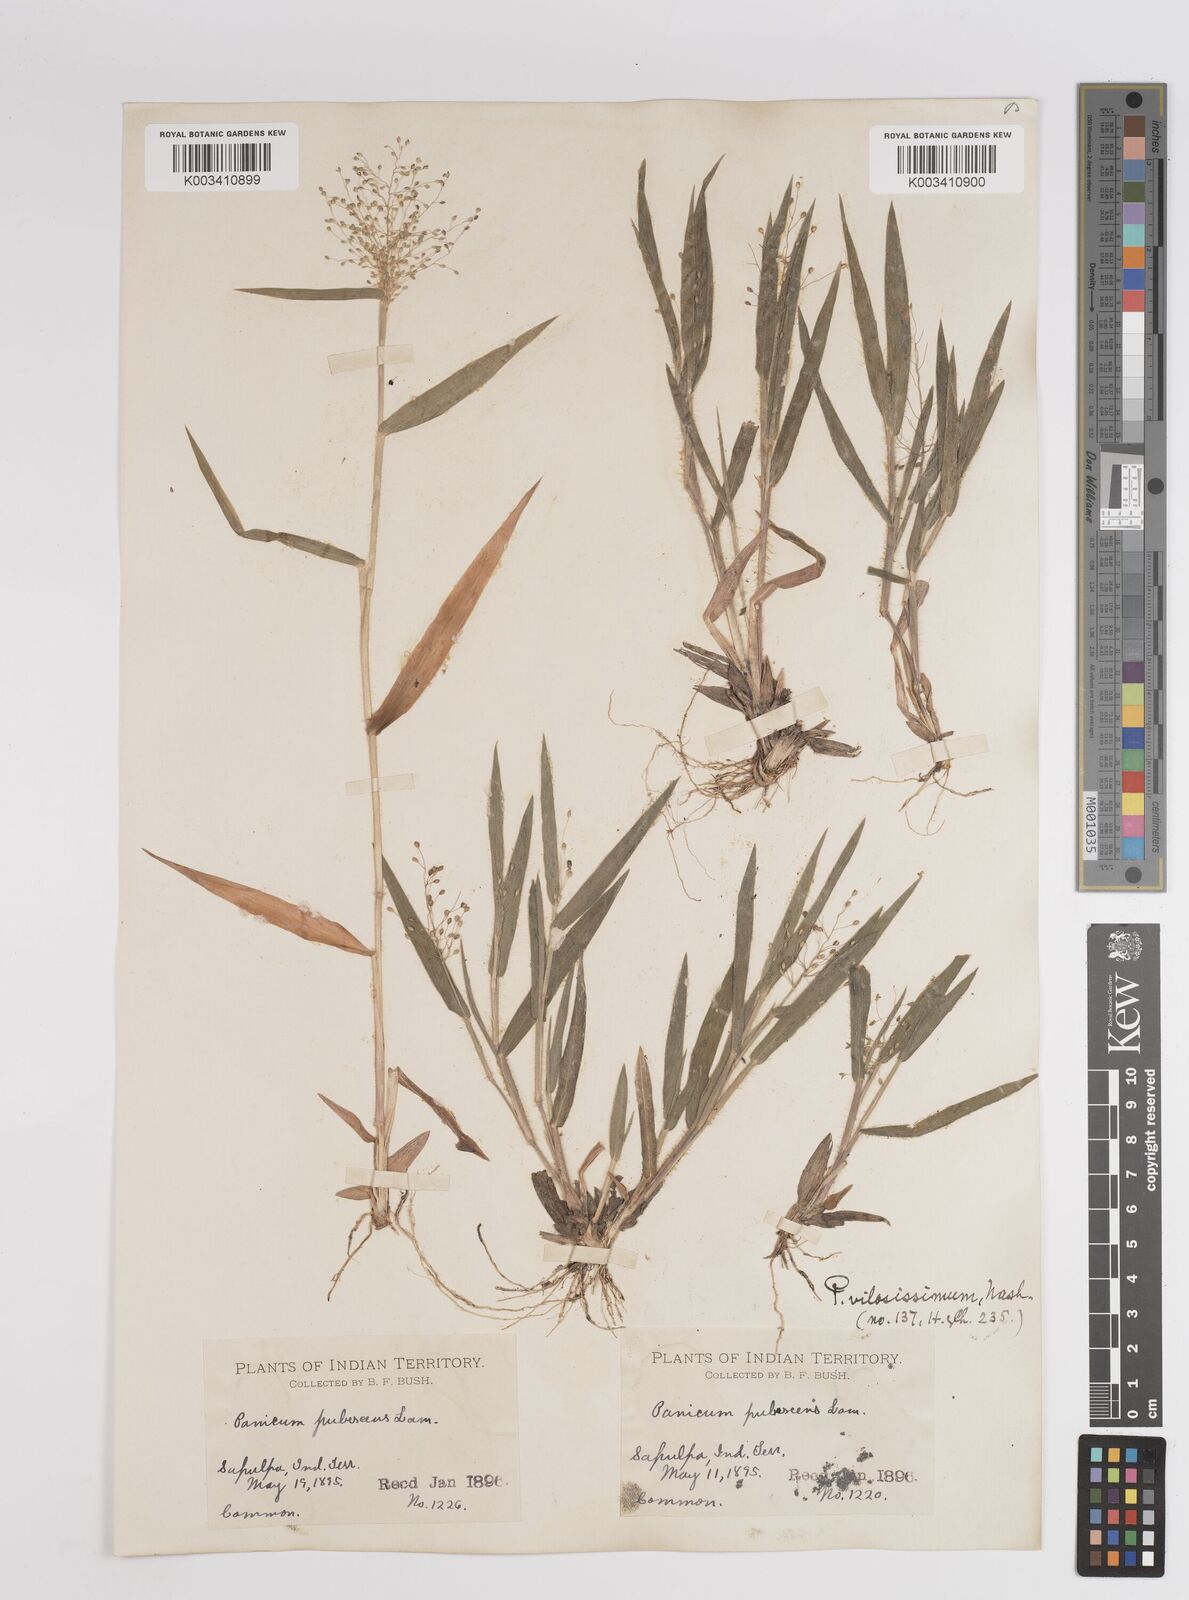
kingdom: Plantae
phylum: Tracheophyta
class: Liliopsida
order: Poales
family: Poaceae
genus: Dichanthelium
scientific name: Dichanthelium villosissimum
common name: White-haired panicgrass
